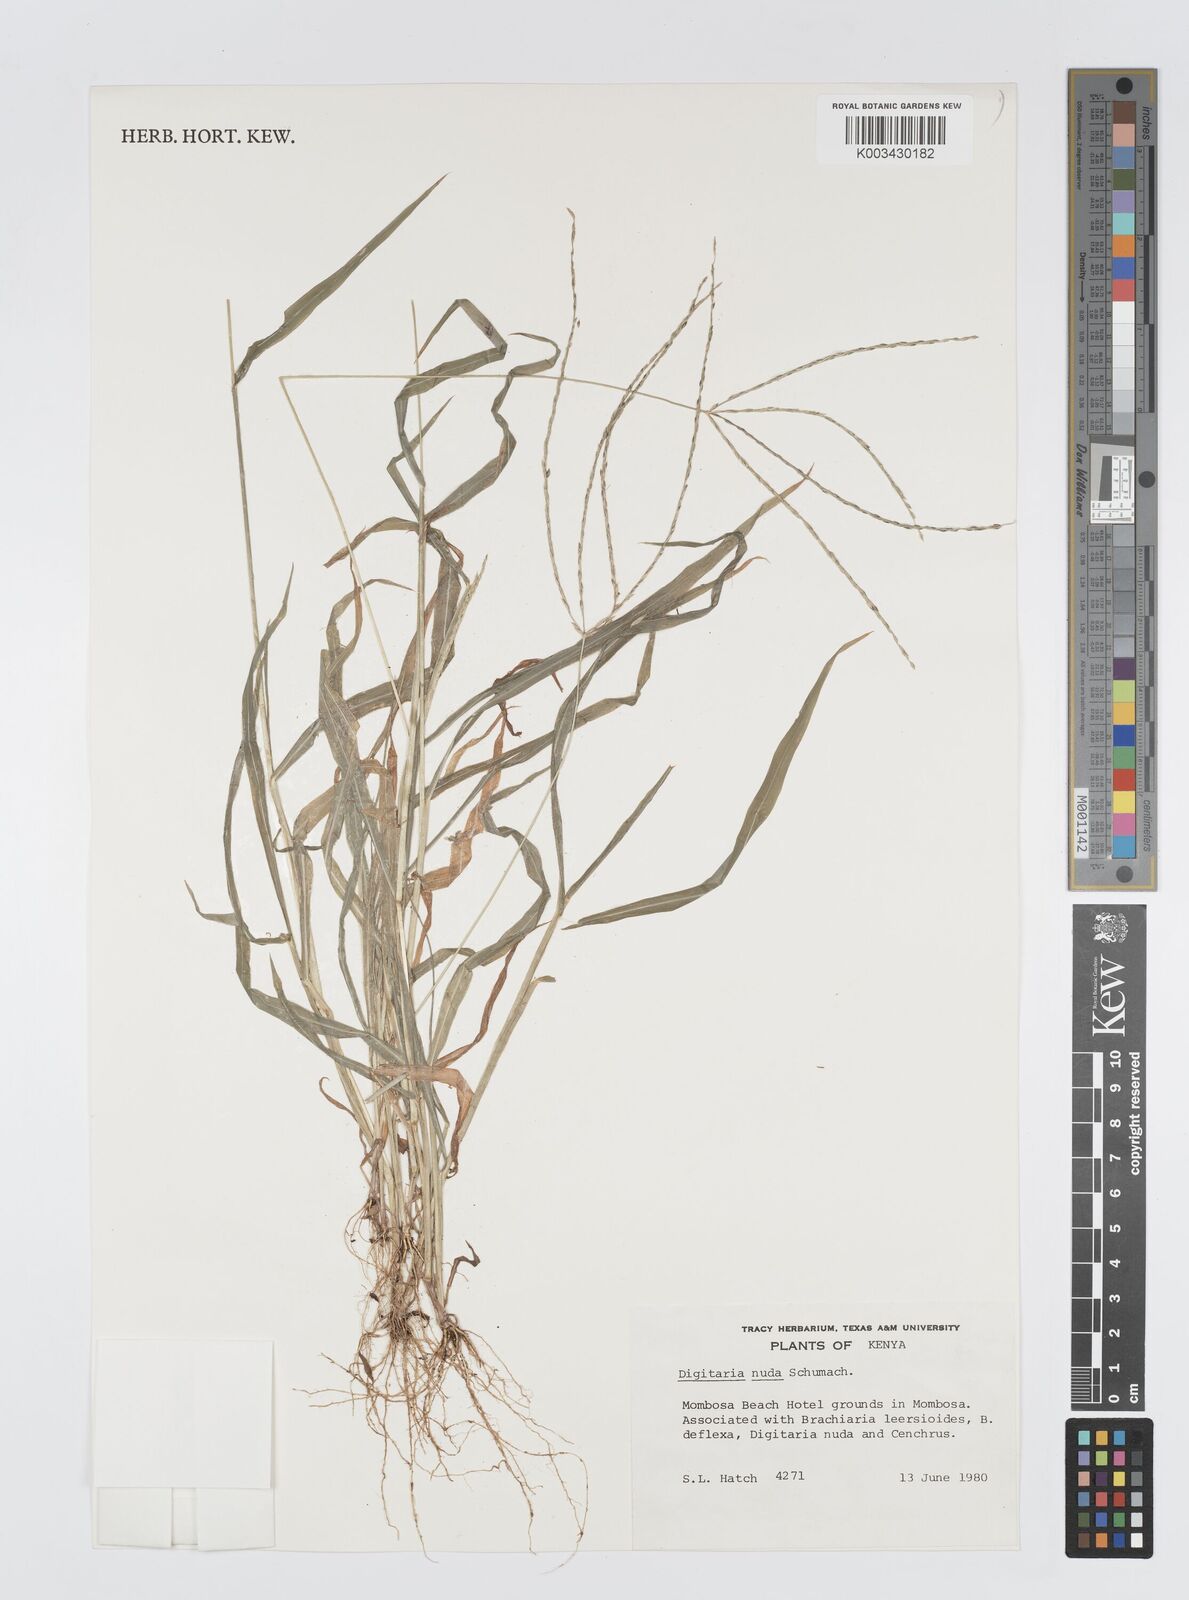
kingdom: Plantae
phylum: Tracheophyta
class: Liliopsida
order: Poales
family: Poaceae
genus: Digitaria
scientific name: Digitaria nuda
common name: Naked crabgrass
